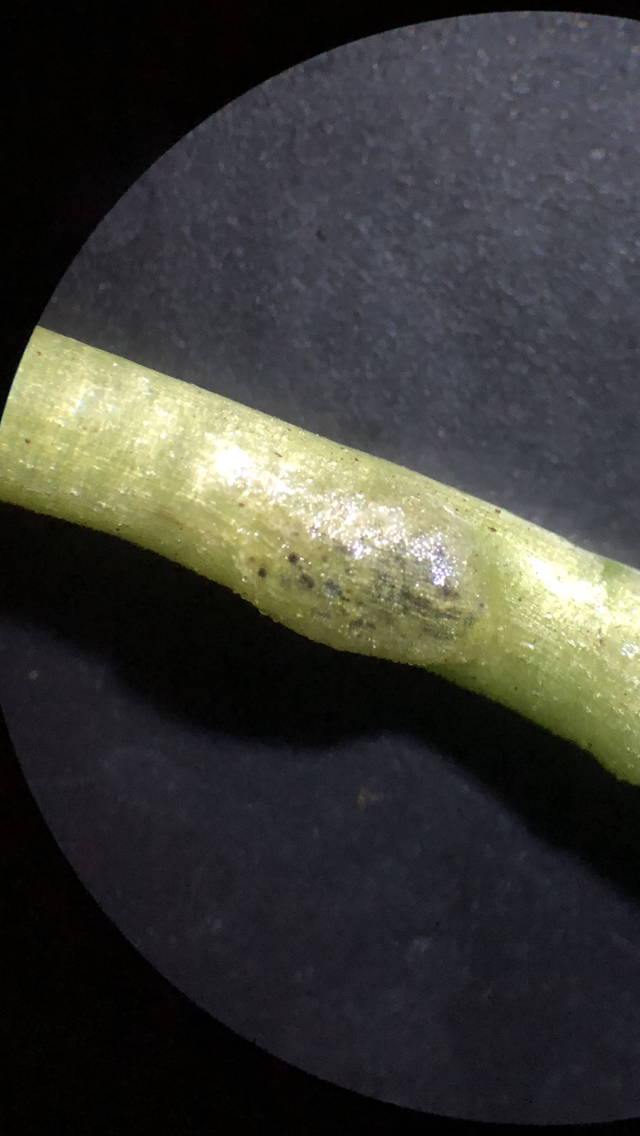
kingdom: Fungi
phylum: Basidiomycota
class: Ustilaginomycetes
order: Urocystidales
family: Urocystidaceae
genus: Urocystis
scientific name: Urocystis eranthidis
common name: erantis-brand
